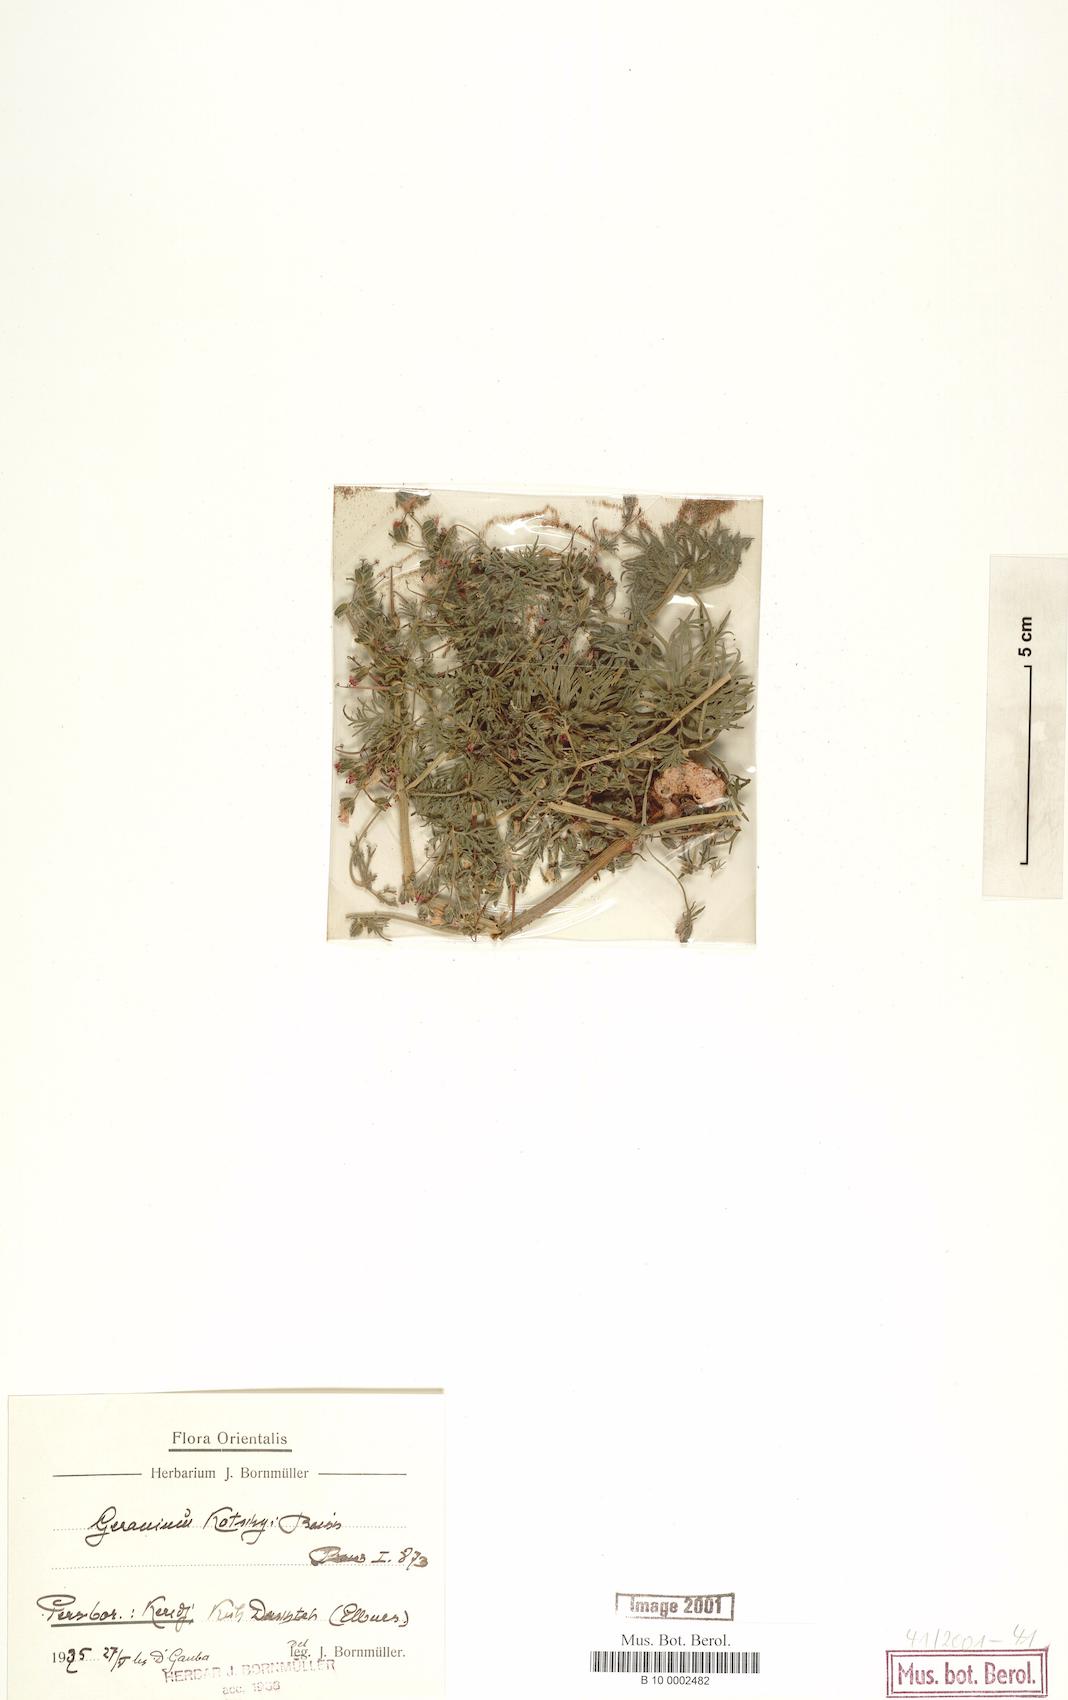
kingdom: Plantae
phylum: Tracheophyta
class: Magnoliopsida
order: Geraniales
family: Geraniaceae
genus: Geranium
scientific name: Geranium kotschyi
